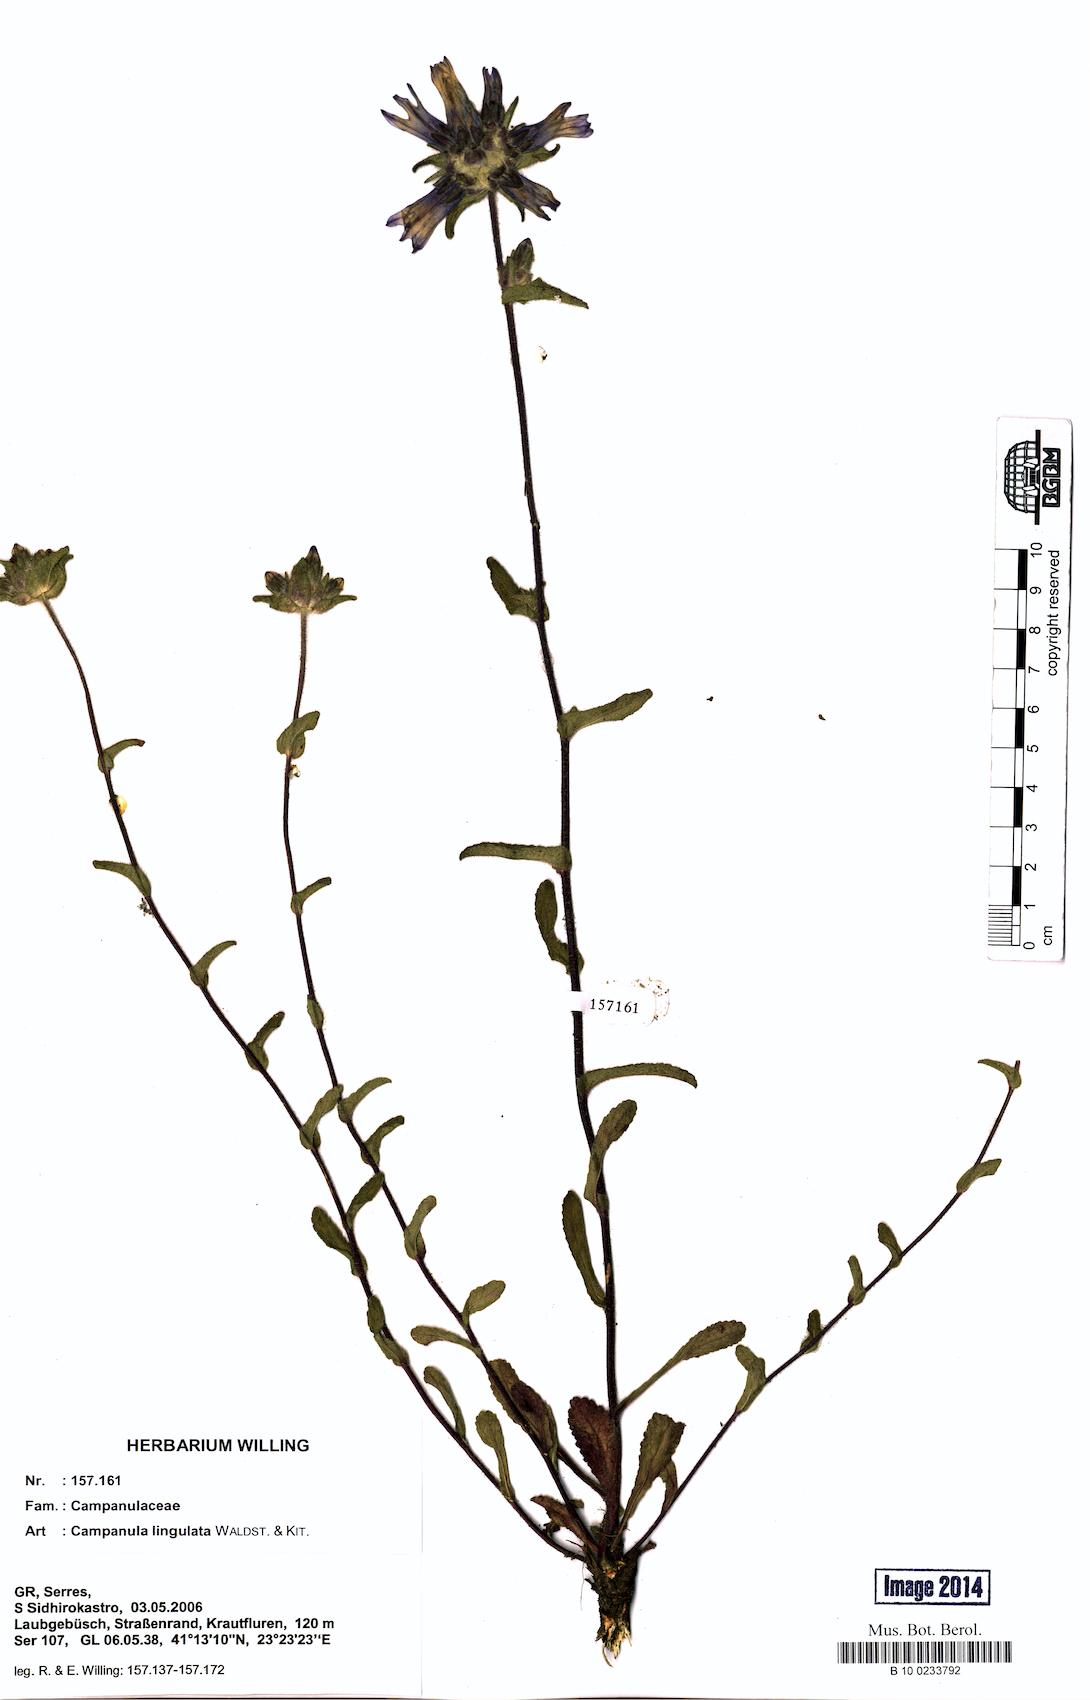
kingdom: Plantae
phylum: Tracheophyta
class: Magnoliopsida
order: Asterales
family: Campanulaceae
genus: Campanula
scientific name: Campanula lingulata
